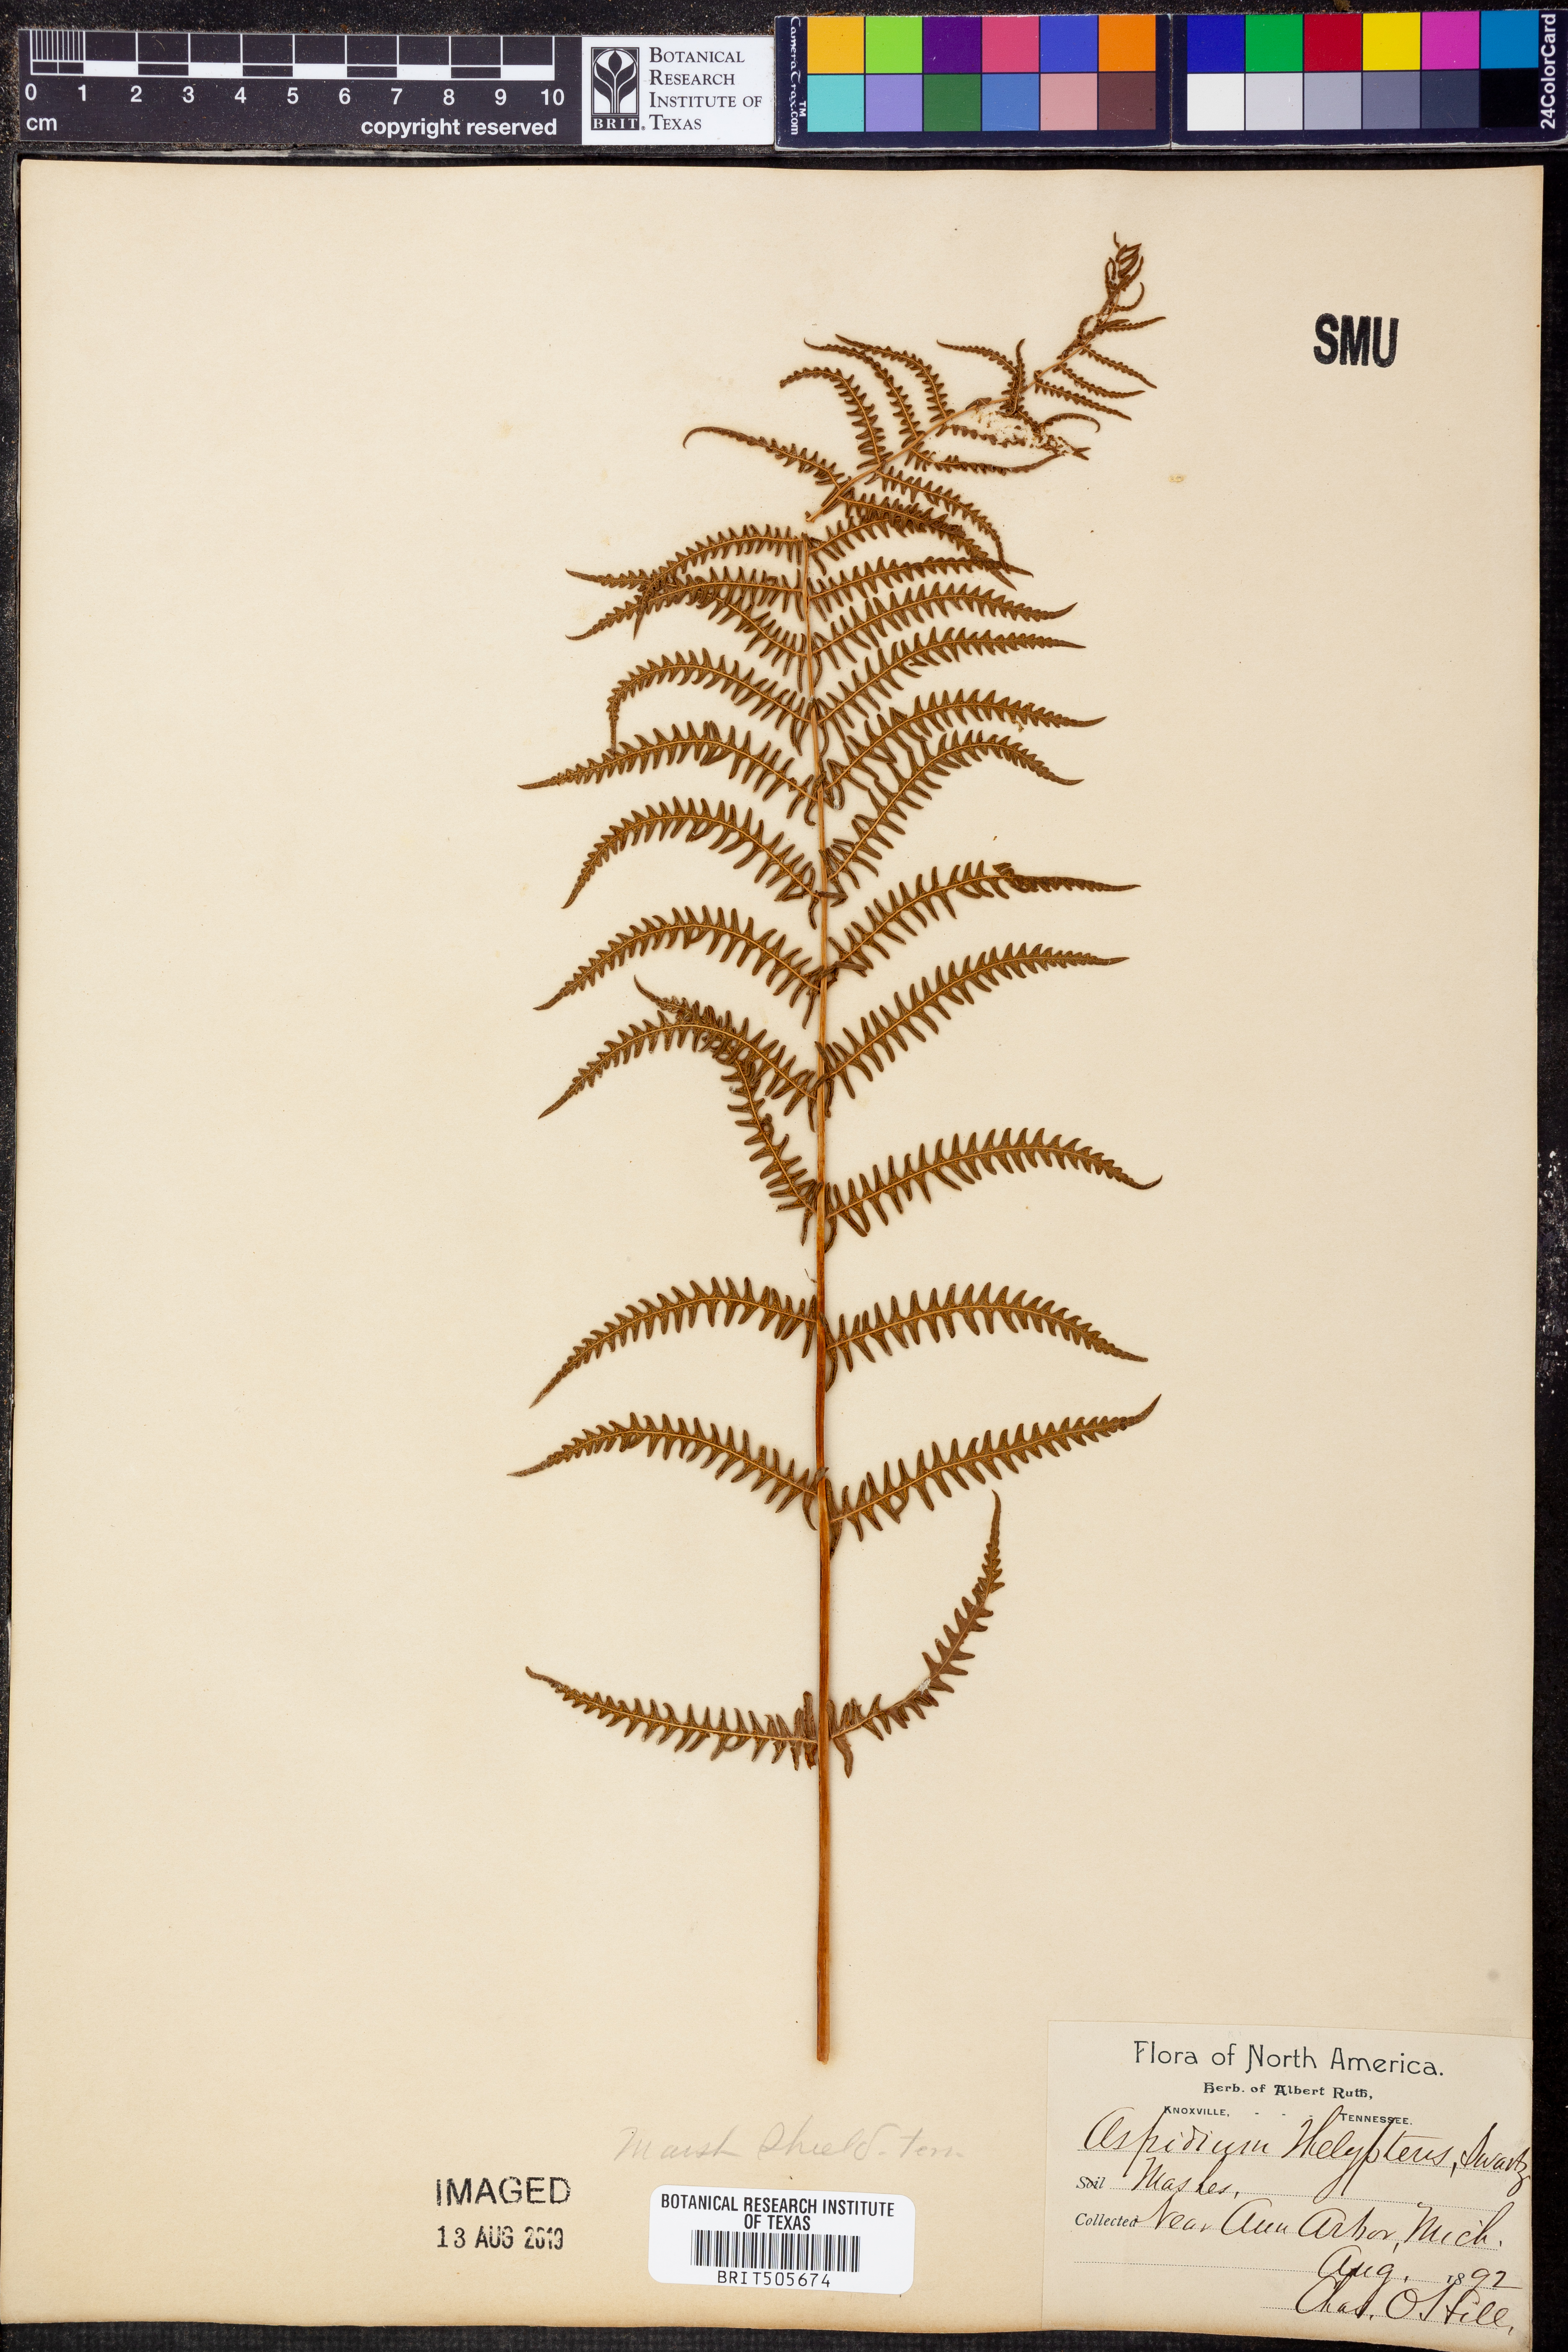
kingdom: Plantae
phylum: Tracheophyta
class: Polypodiopsida
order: Polypodiales
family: Thelypteridaceae
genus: Thelypteris
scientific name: Thelypteris
